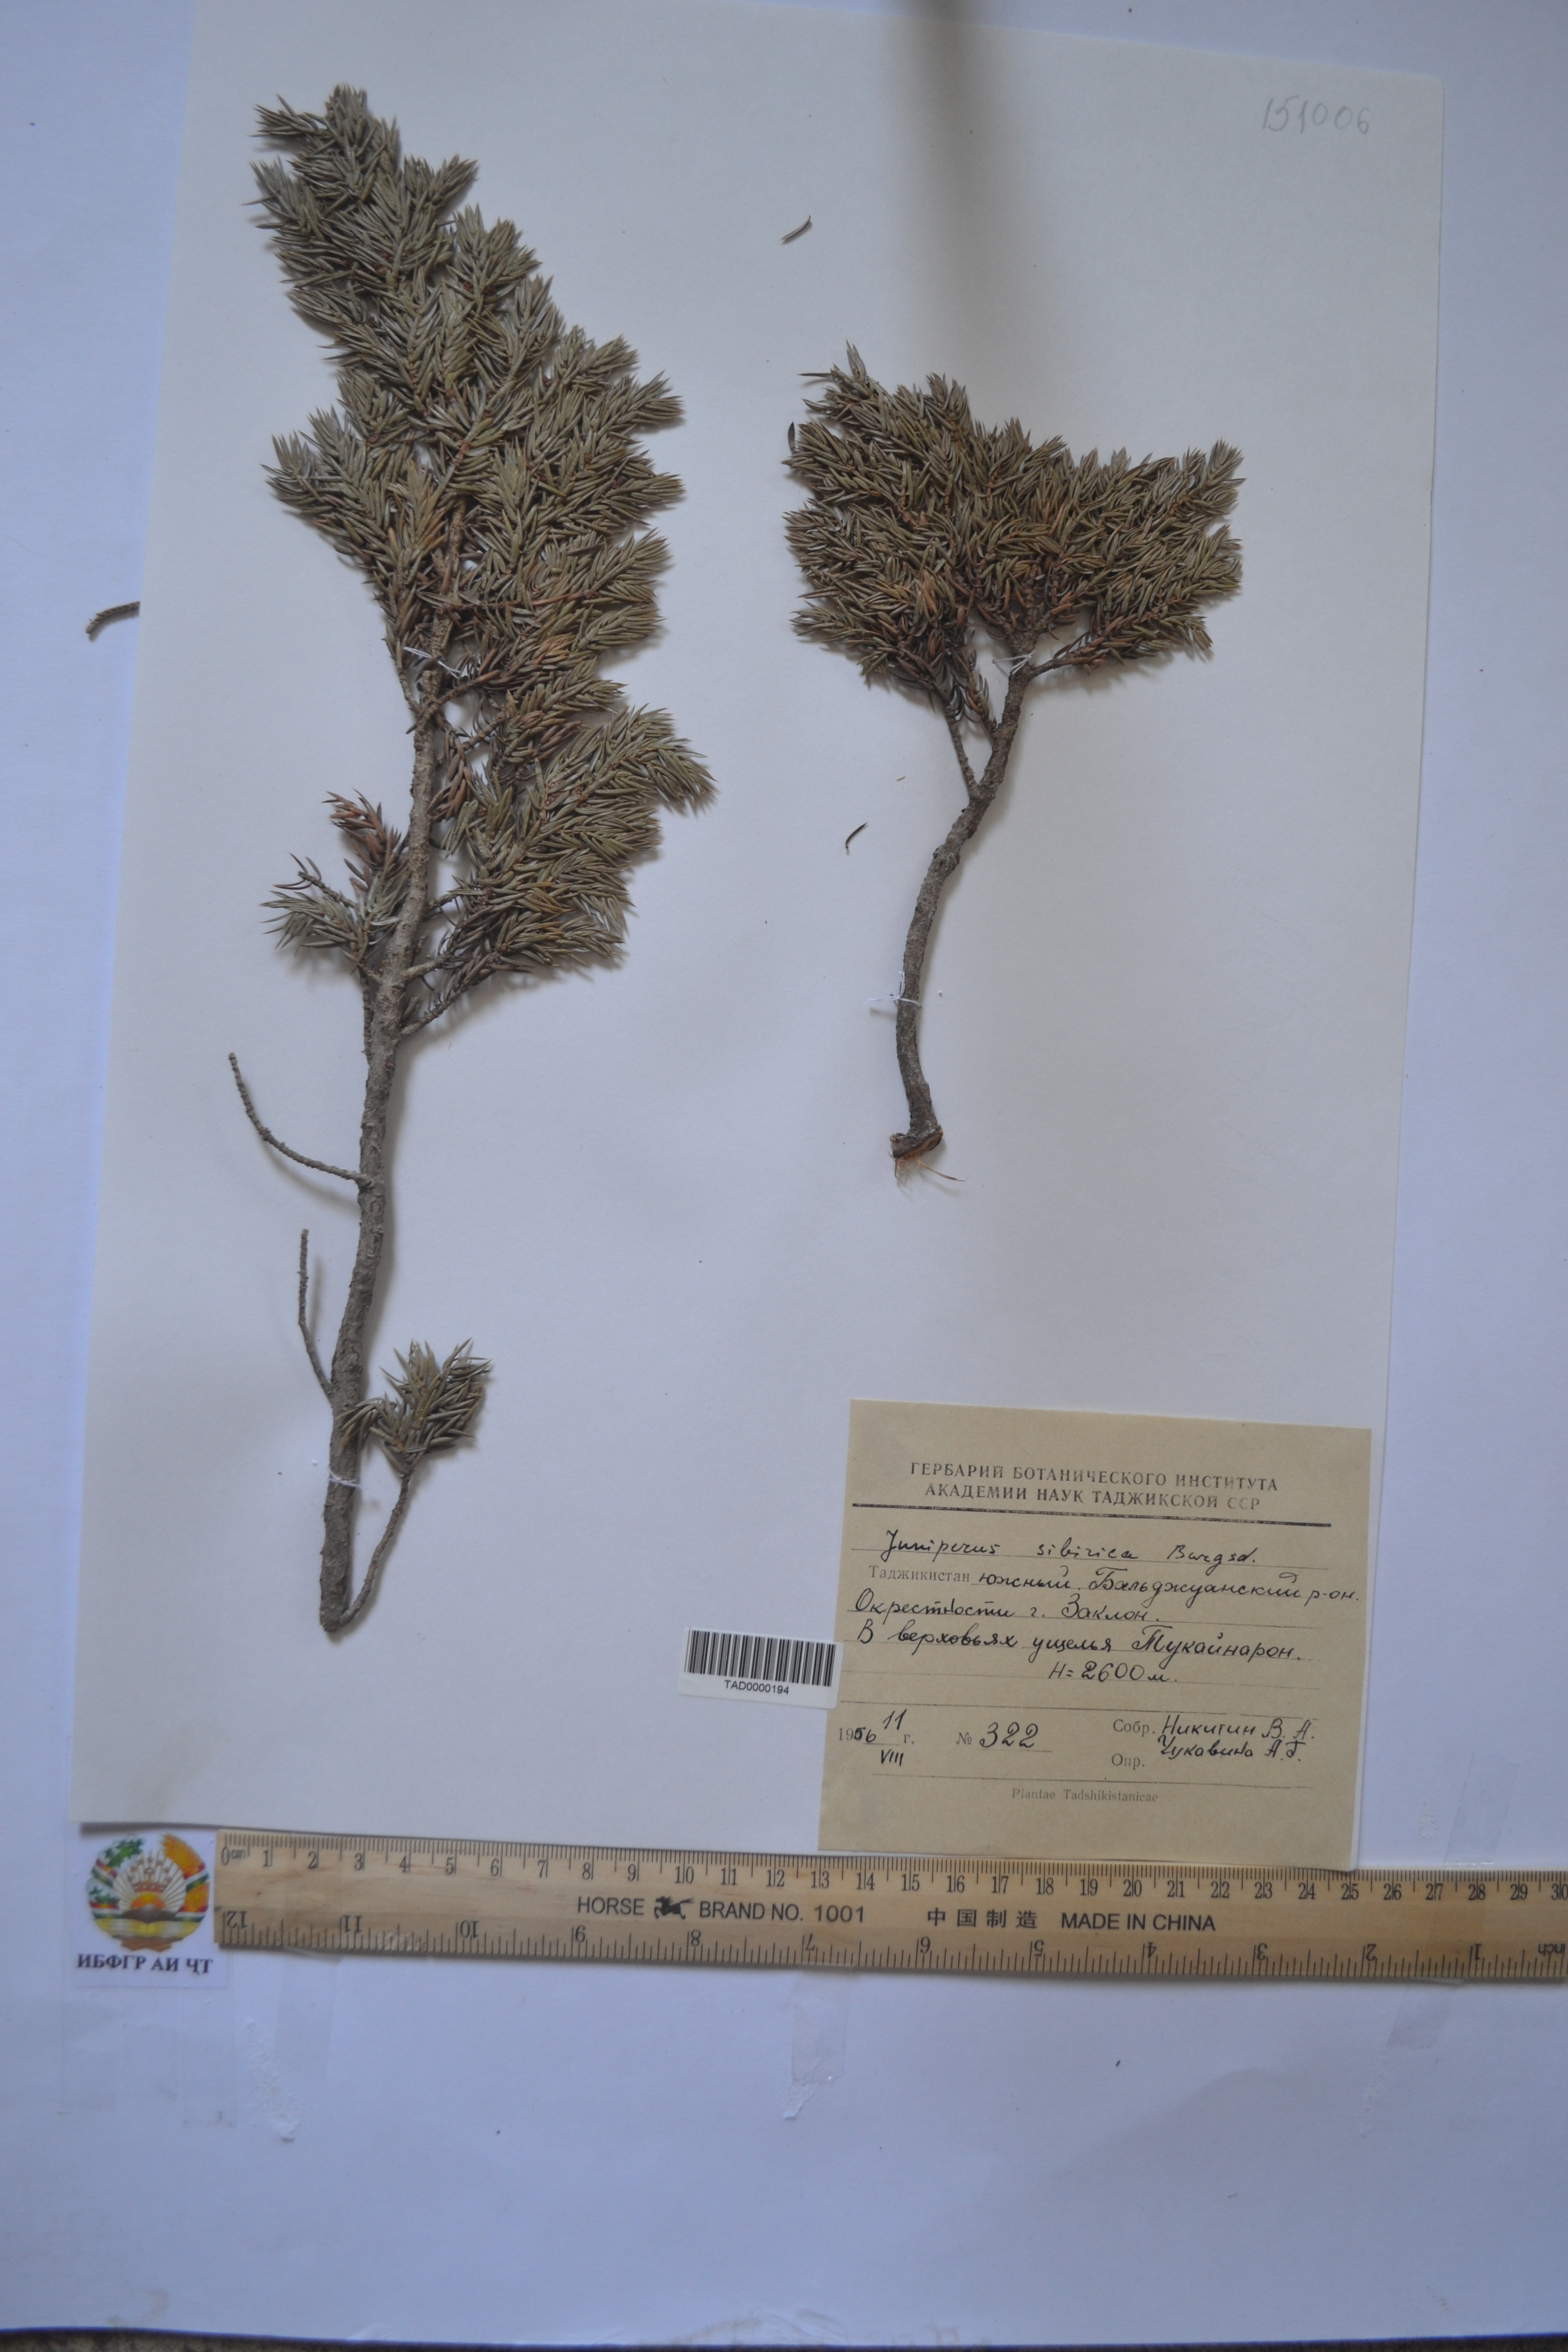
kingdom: Plantae
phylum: Tracheophyta
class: Pinopsida
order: Pinales
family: Cupressaceae
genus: Juniperus
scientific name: Juniperus communis
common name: Common juniper
